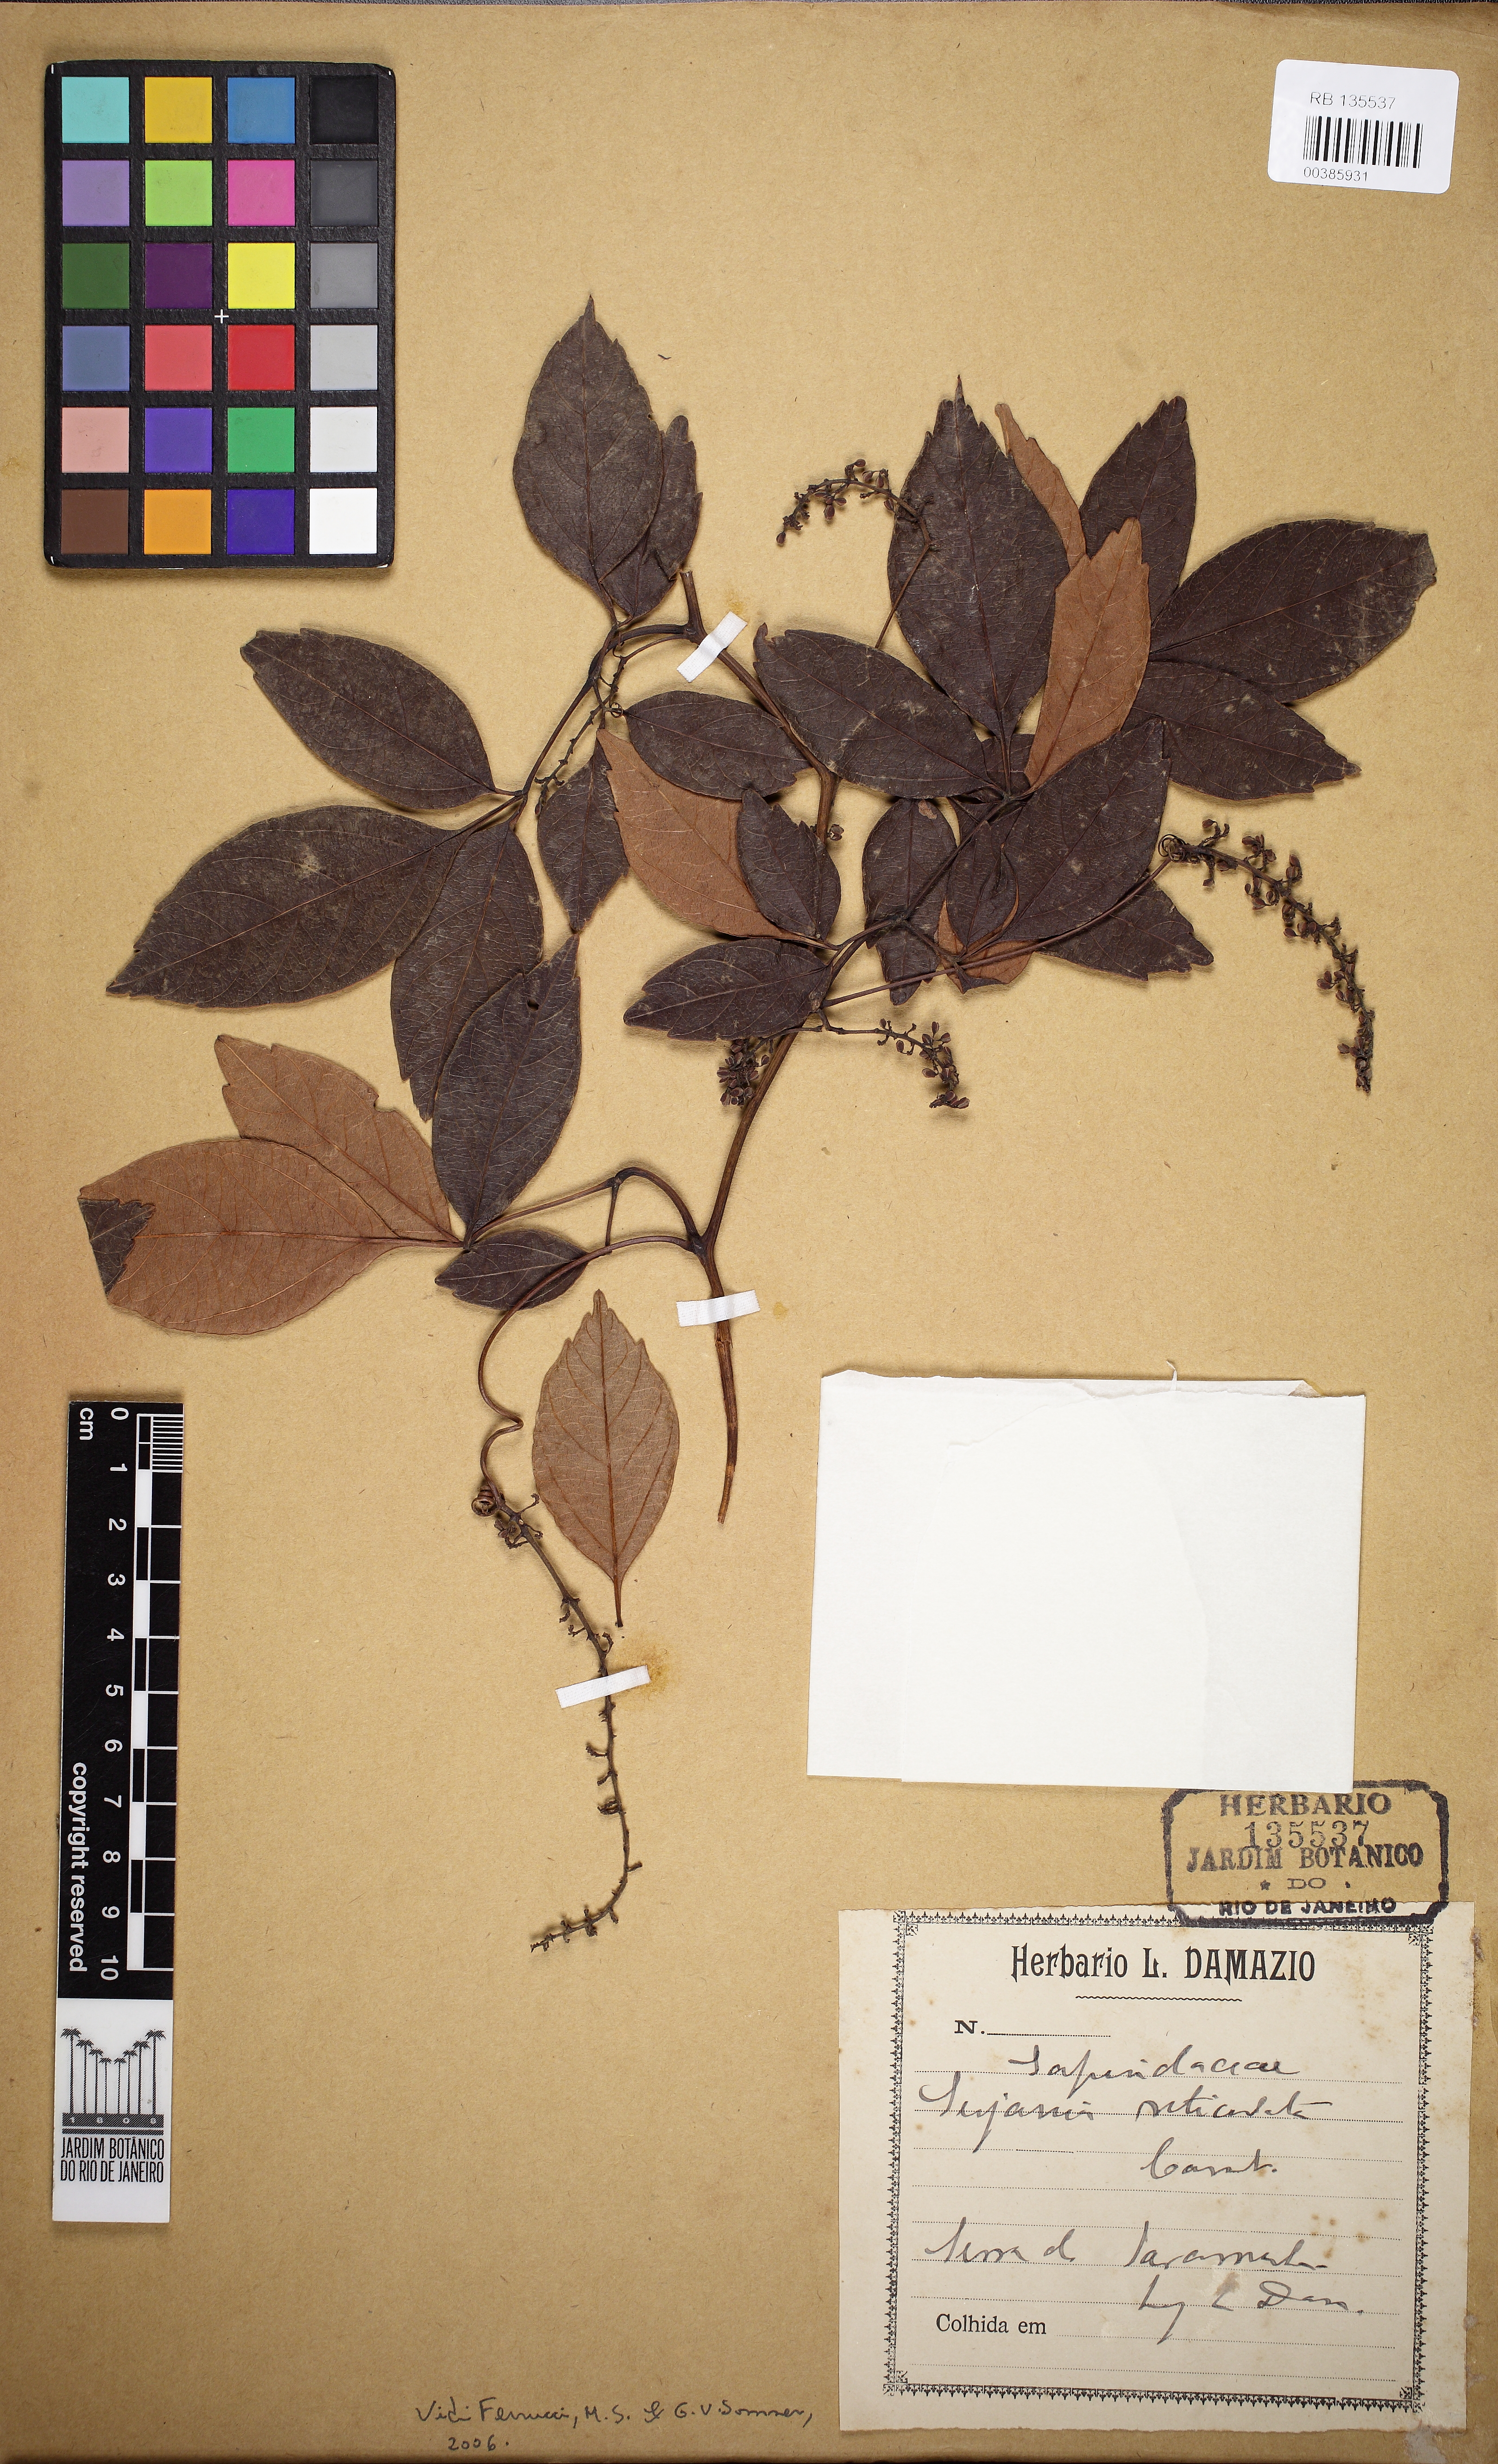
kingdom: Plantae
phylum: Tracheophyta
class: Magnoliopsida
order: Sapindales
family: Sapindaceae
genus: Serjania
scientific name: Serjania reticulata
